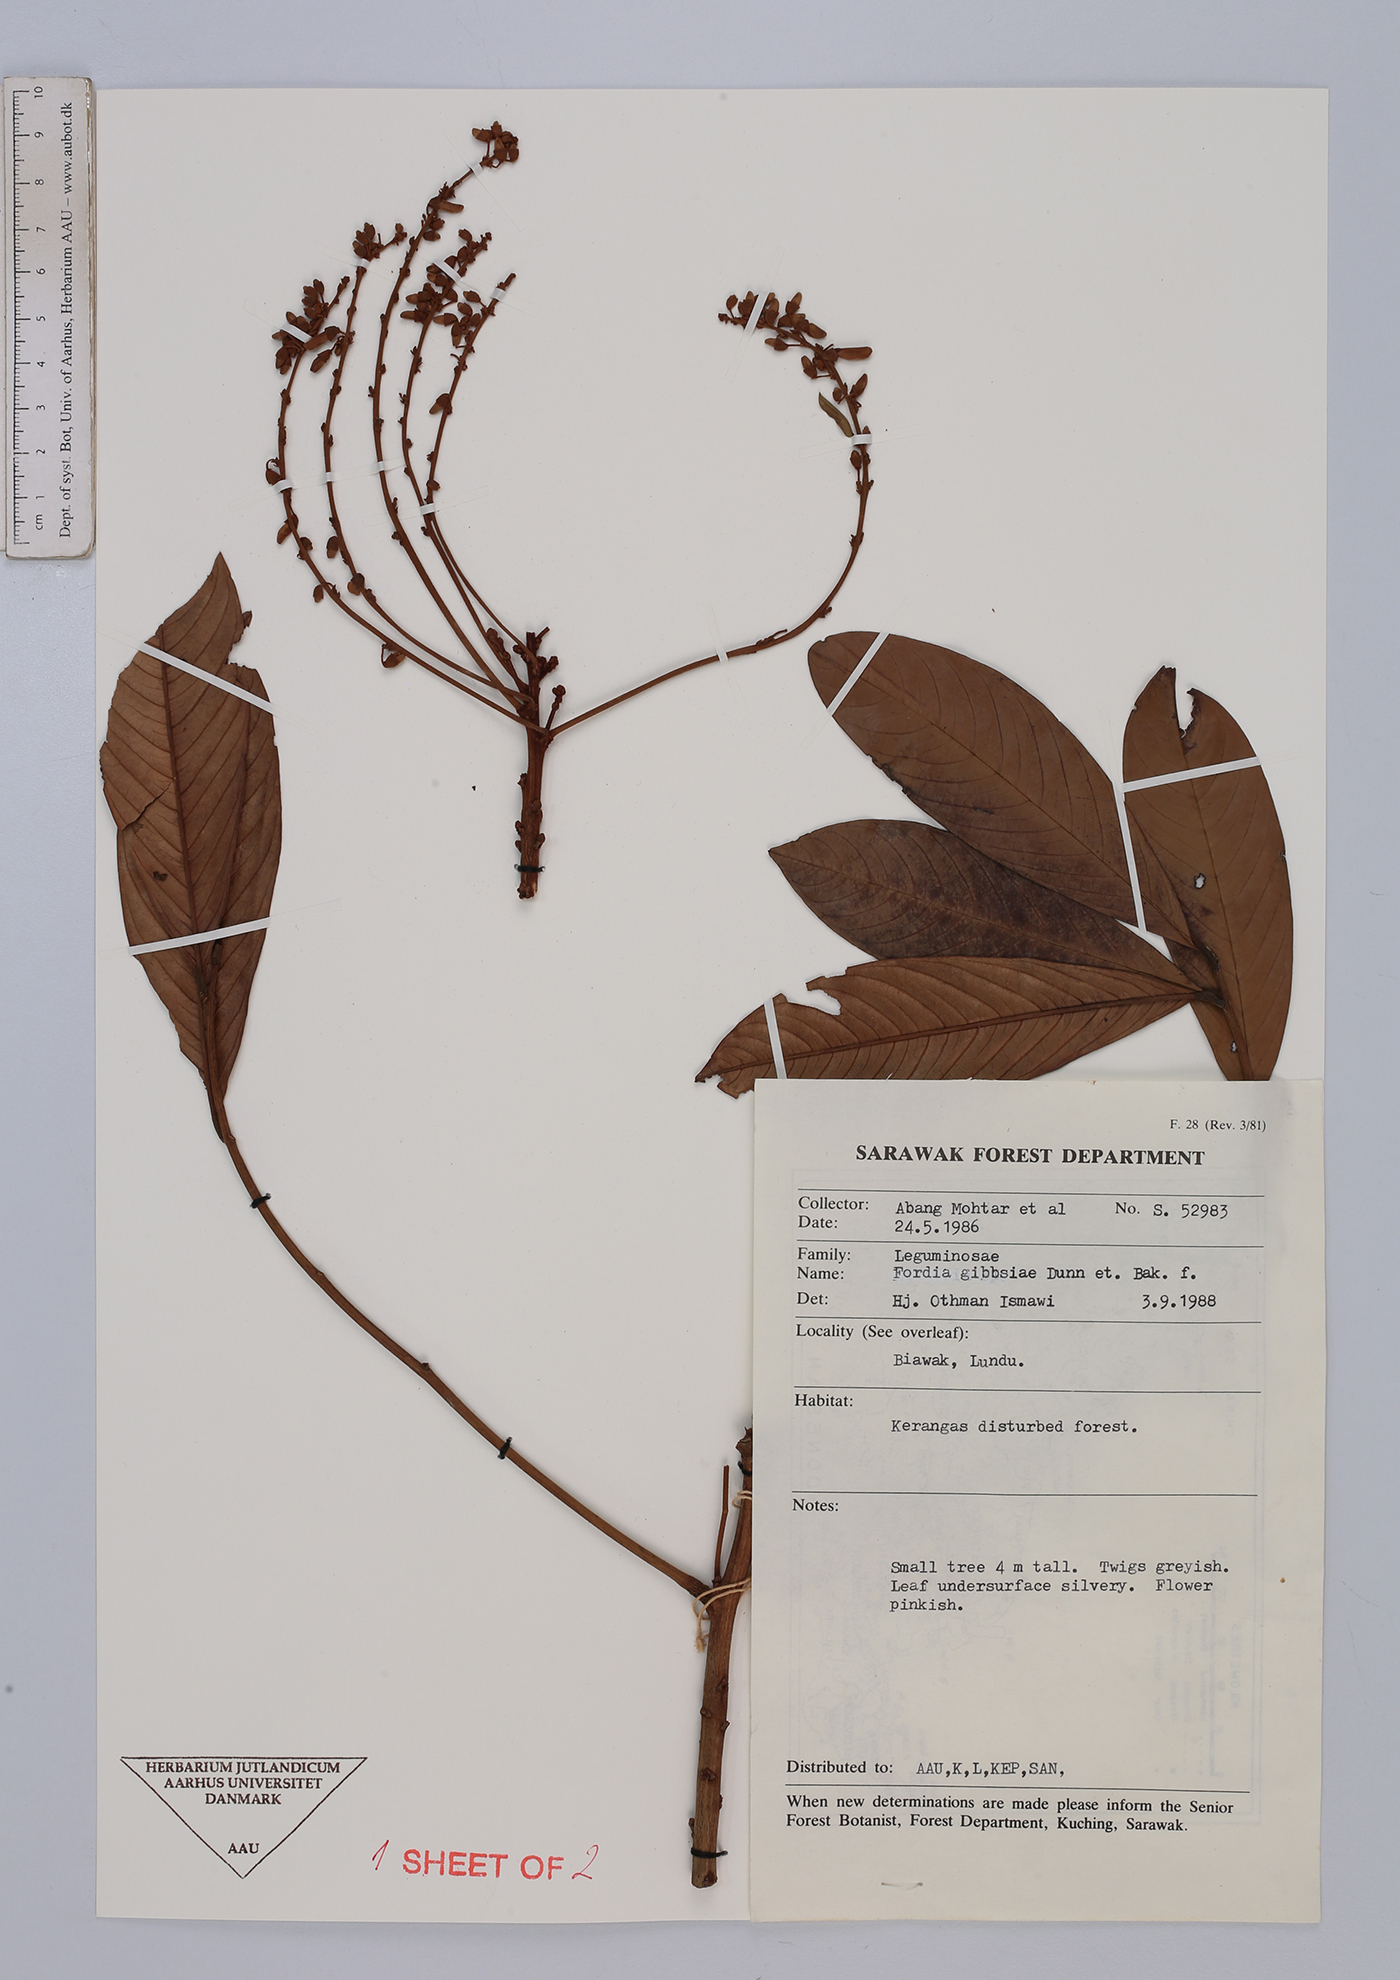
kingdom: Plantae
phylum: Tracheophyta
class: Magnoliopsida
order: Fabales
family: Fabaceae
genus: Fordia
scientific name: Fordia splendidissima
